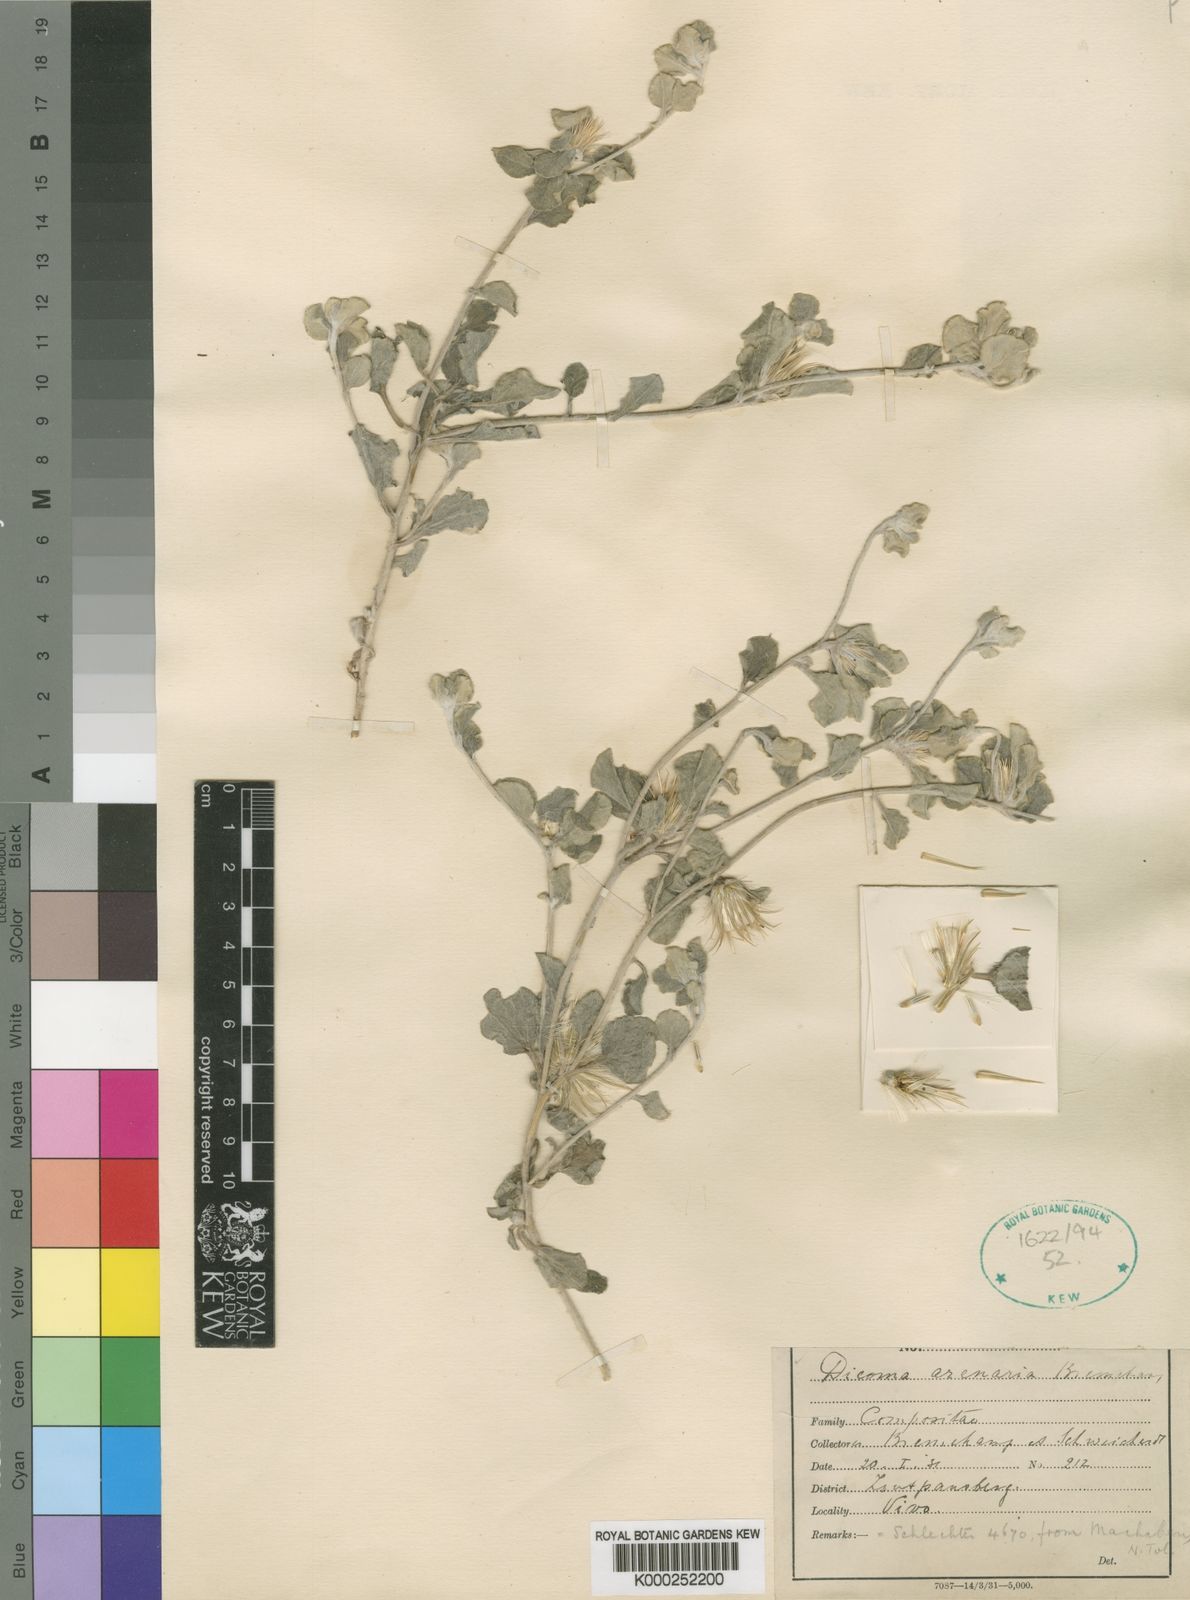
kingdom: Plantae
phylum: Tracheophyta
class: Magnoliopsida
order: Asterales
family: Asteraceae
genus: Dicoma
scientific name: Dicoma arenaria
